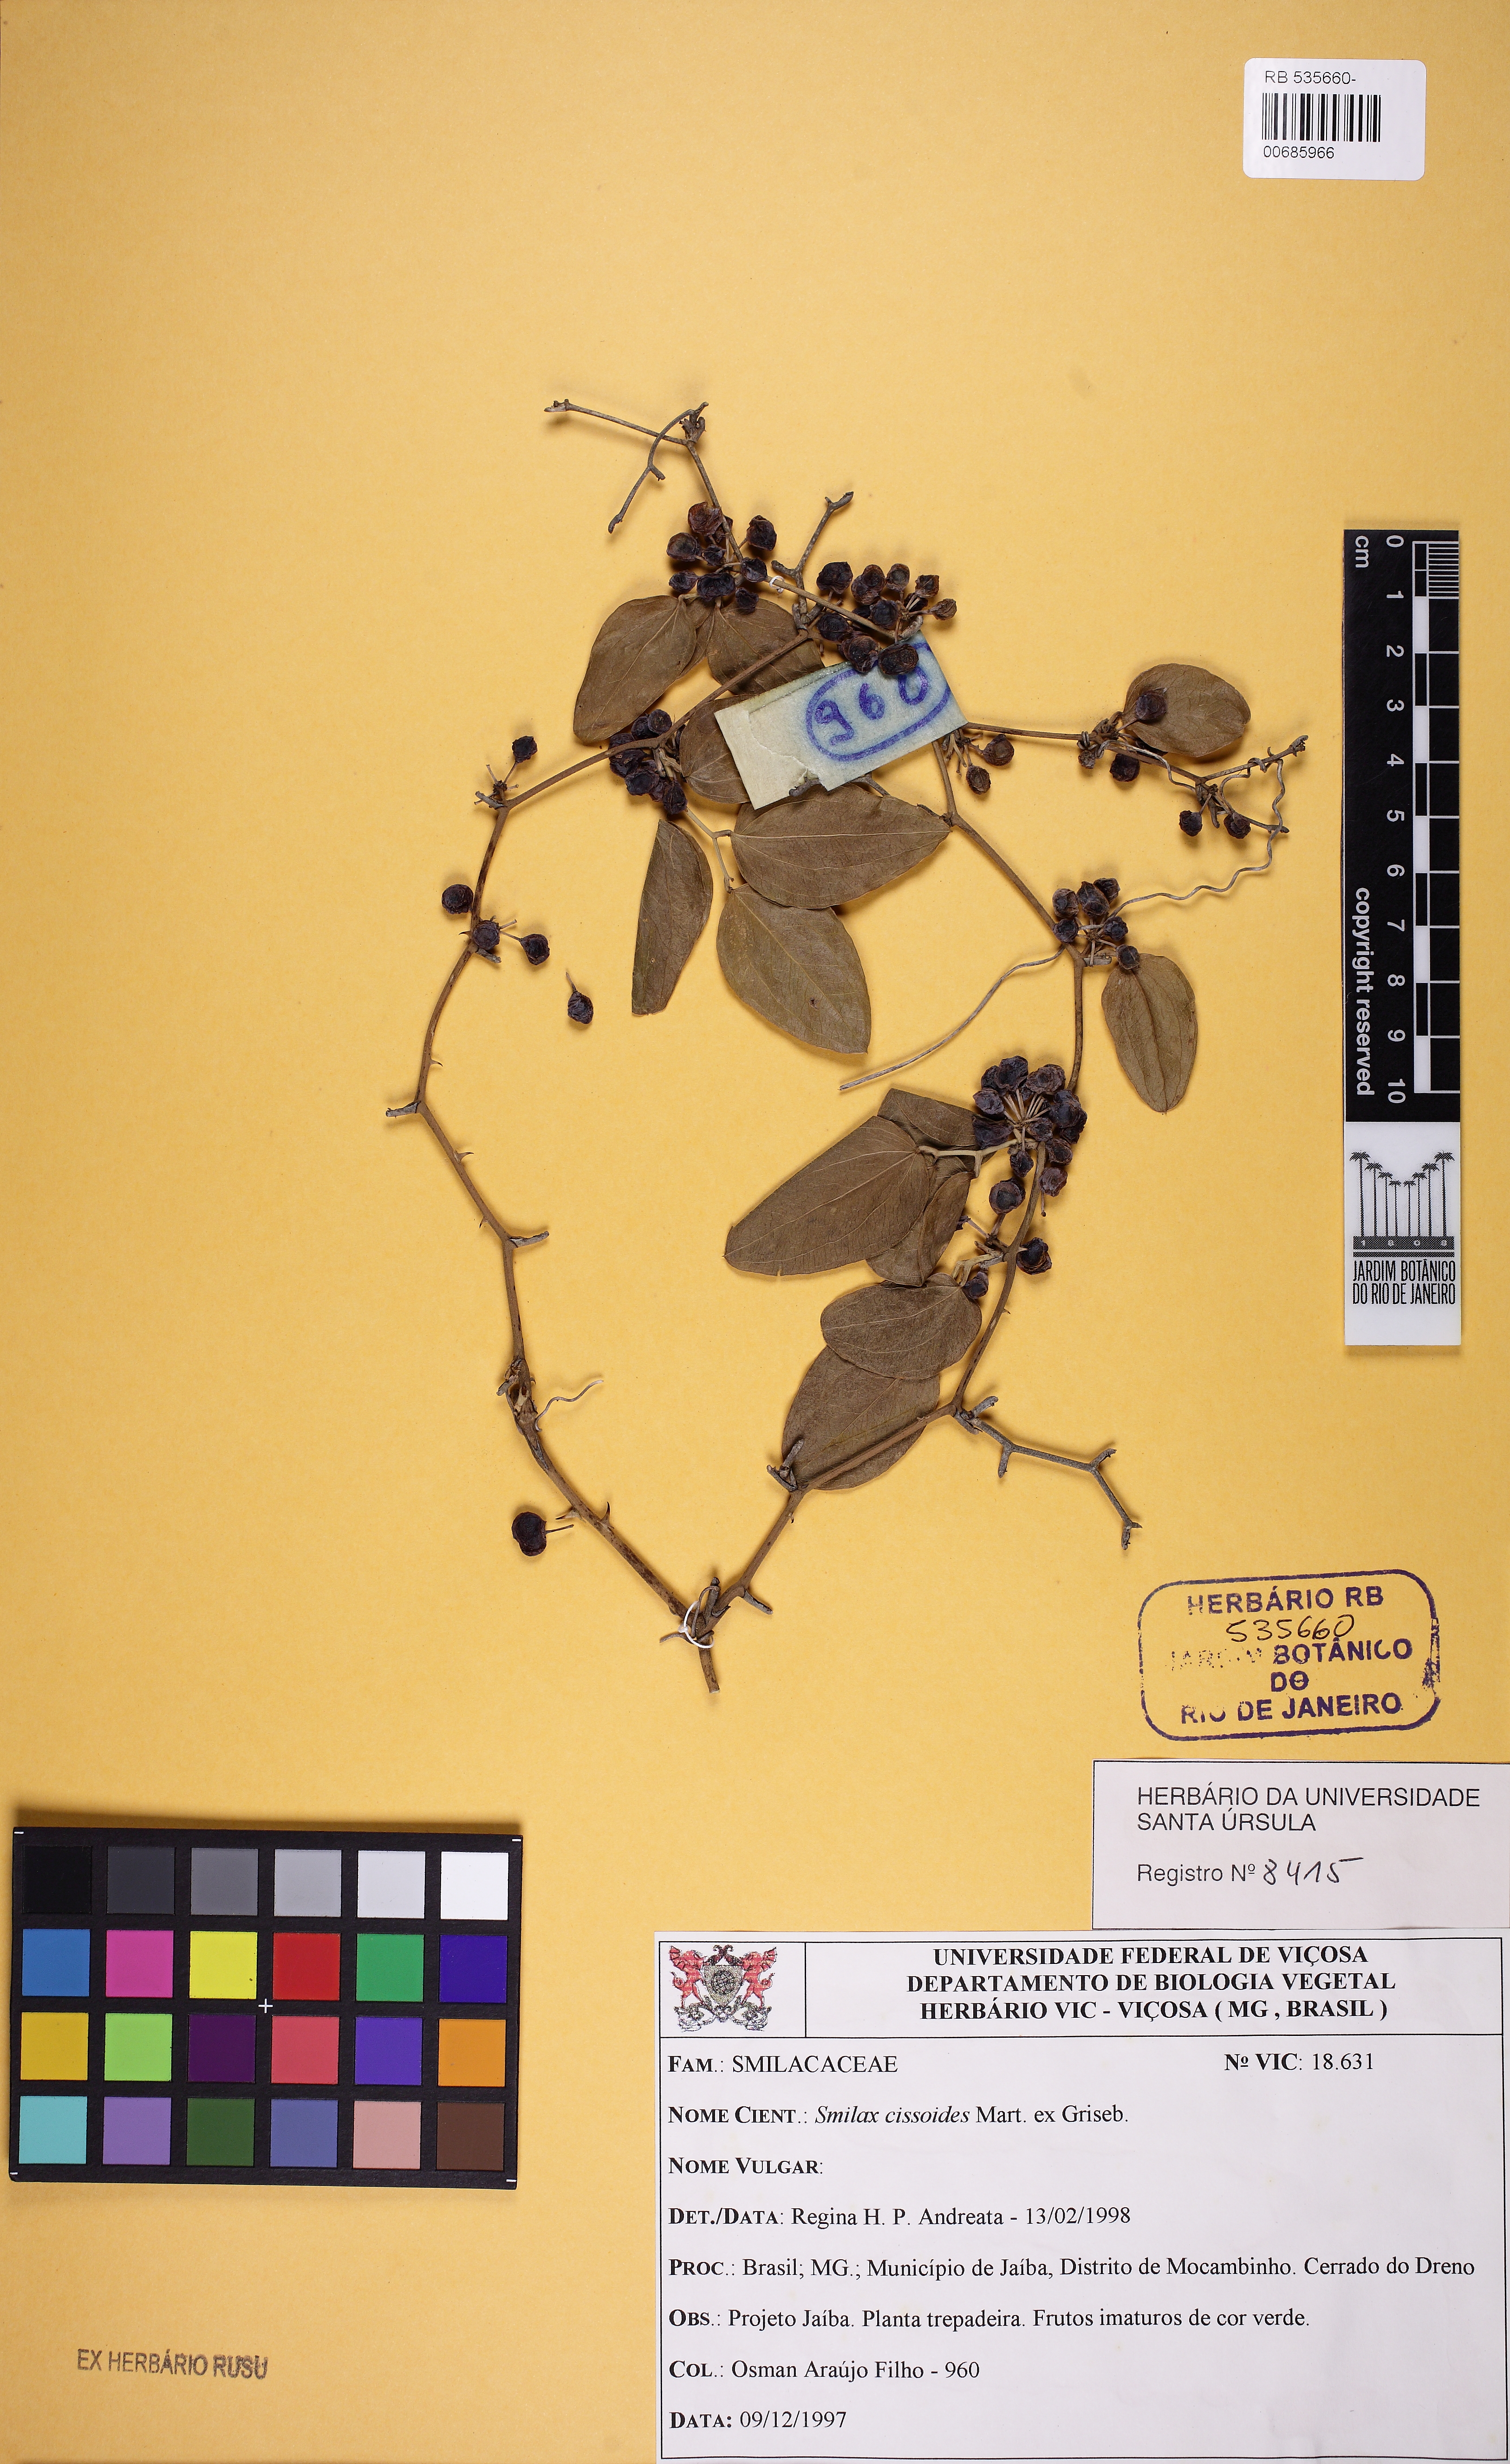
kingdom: Plantae
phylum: Tracheophyta
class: Liliopsida
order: Liliales
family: Smilacaceae
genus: Smilax
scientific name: Smilax cissoides
